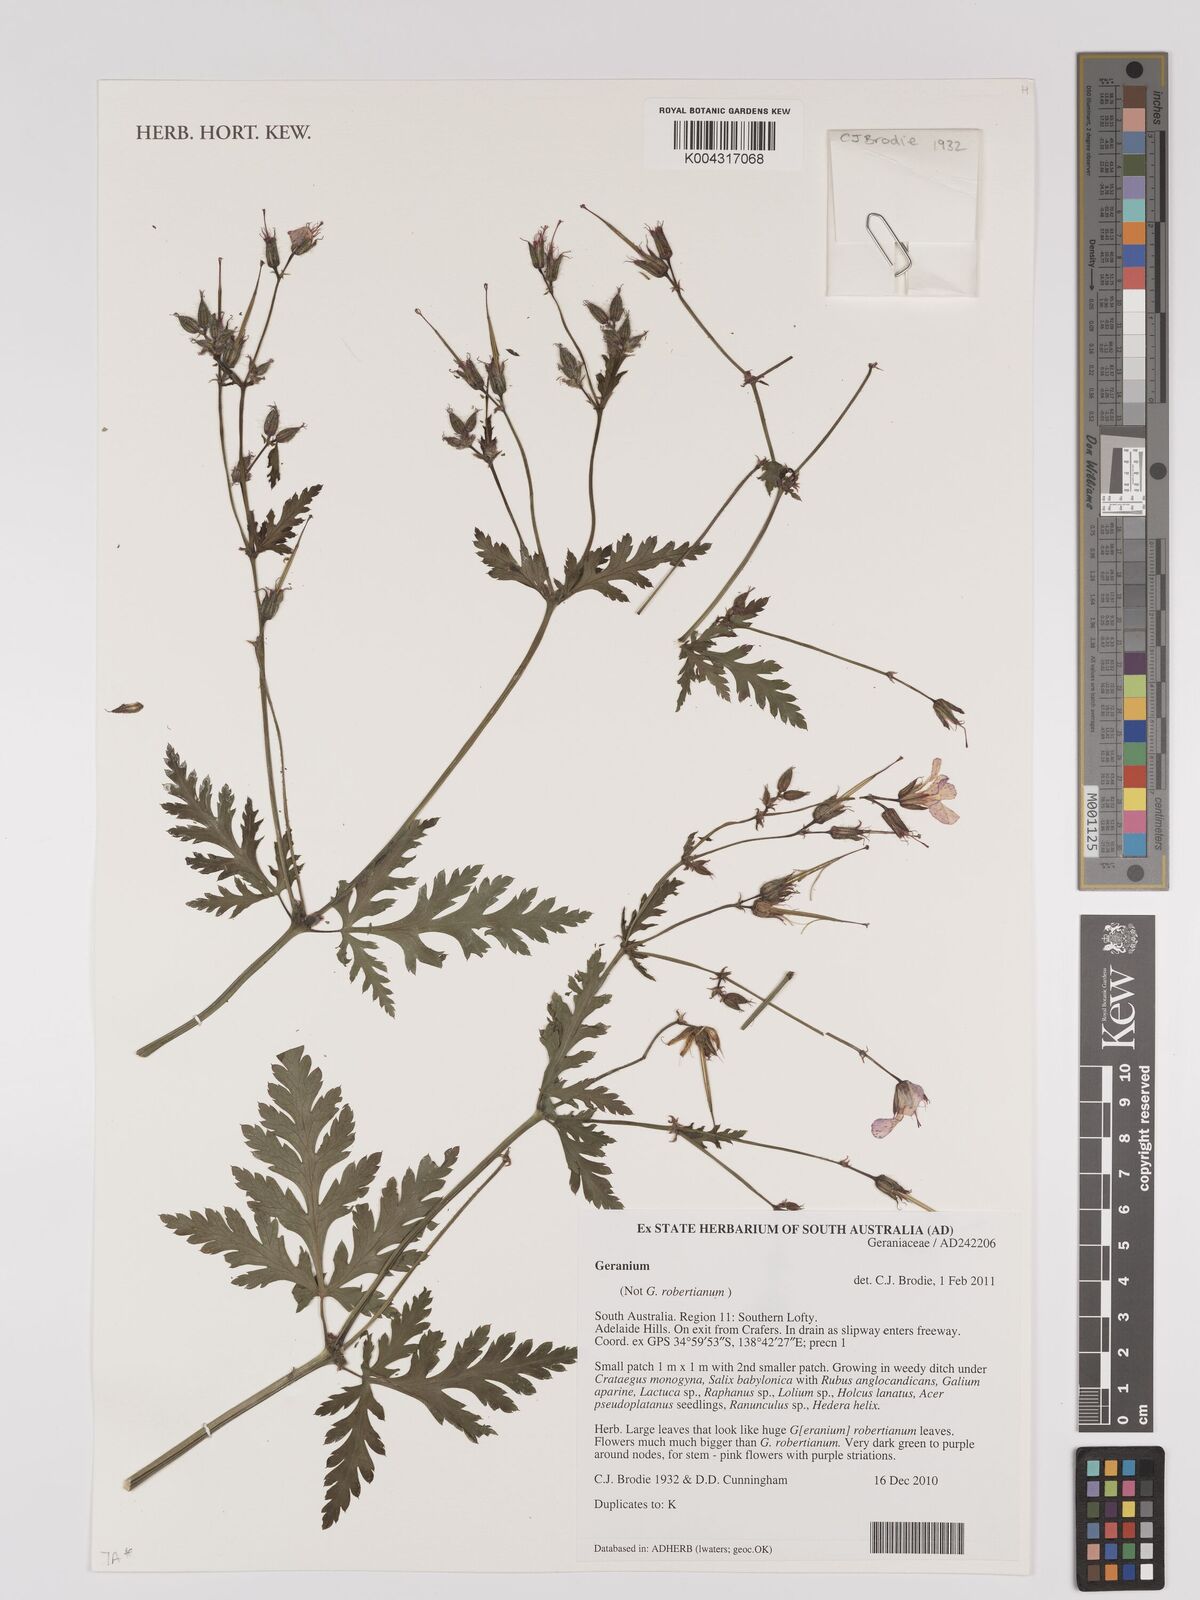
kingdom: Plantae
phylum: Tracheophyta
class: Magnoliopsida
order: Geraniales
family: Geraniaceae
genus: Geranium
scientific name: Geranium
